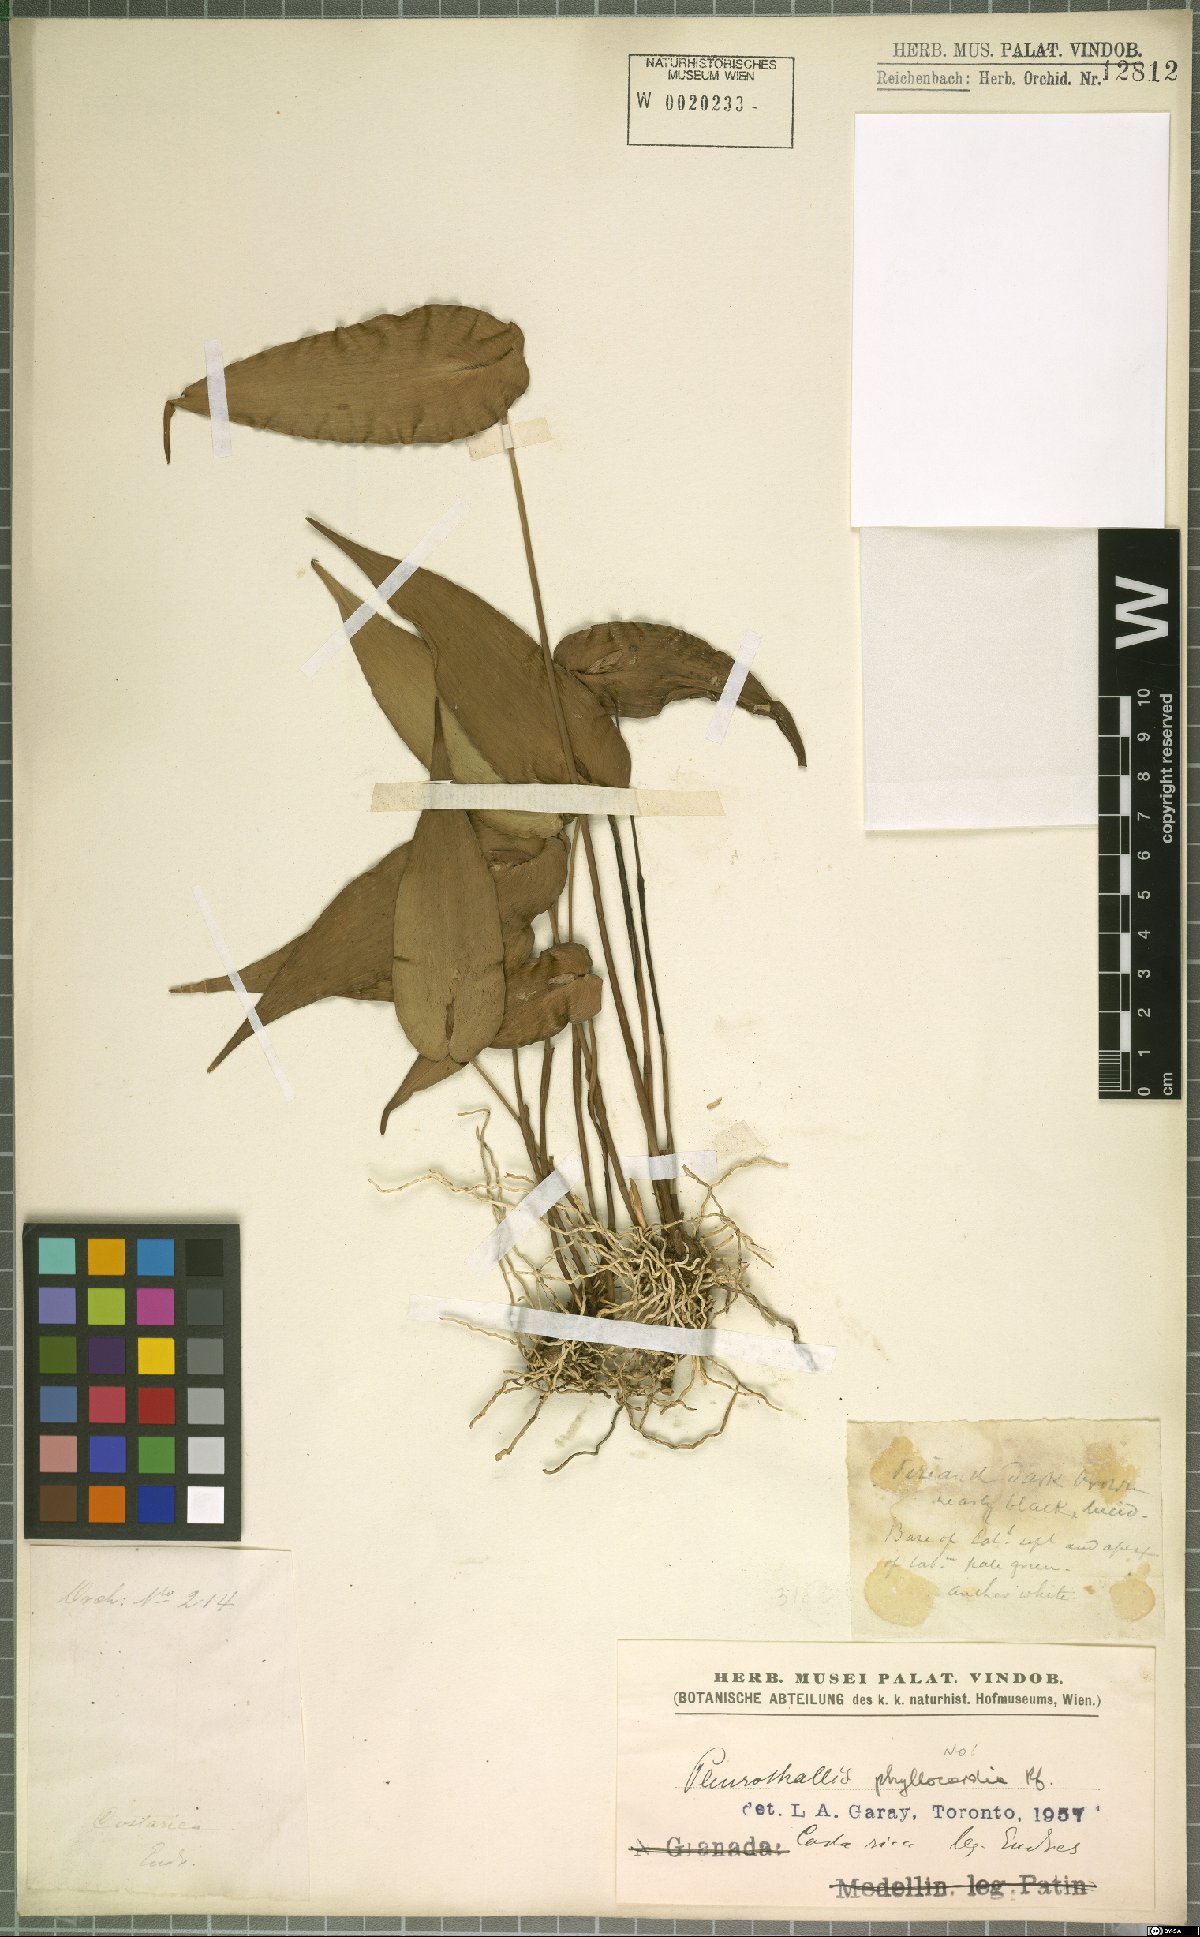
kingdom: Plantae
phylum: Tracheophyta
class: Liliopsida
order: Asparagales
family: Orchidaceae
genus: Pleurothallis
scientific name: Pleurothallis phyllocardia
